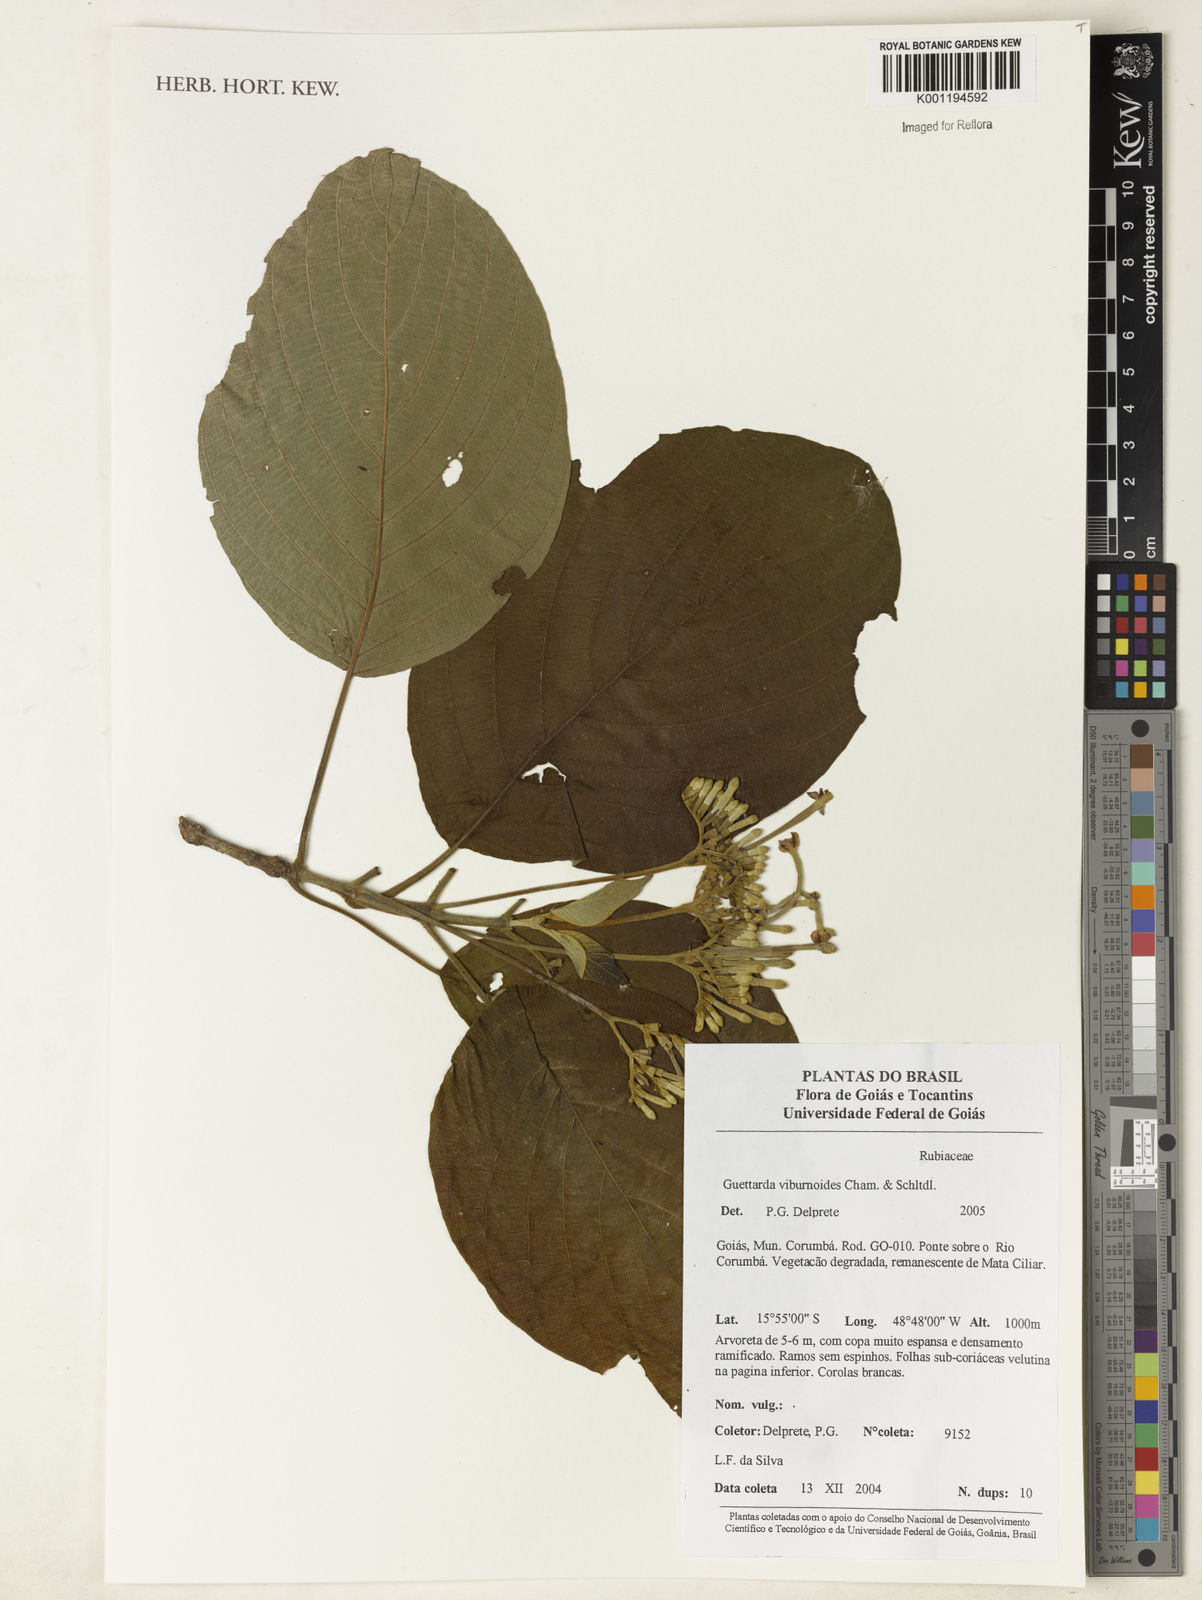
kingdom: Plantae
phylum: Tracheophyta
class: Magnoliopsida
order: Gentianales
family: Rubiaceae
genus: Guettarda
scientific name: Guettarda viburnoides
